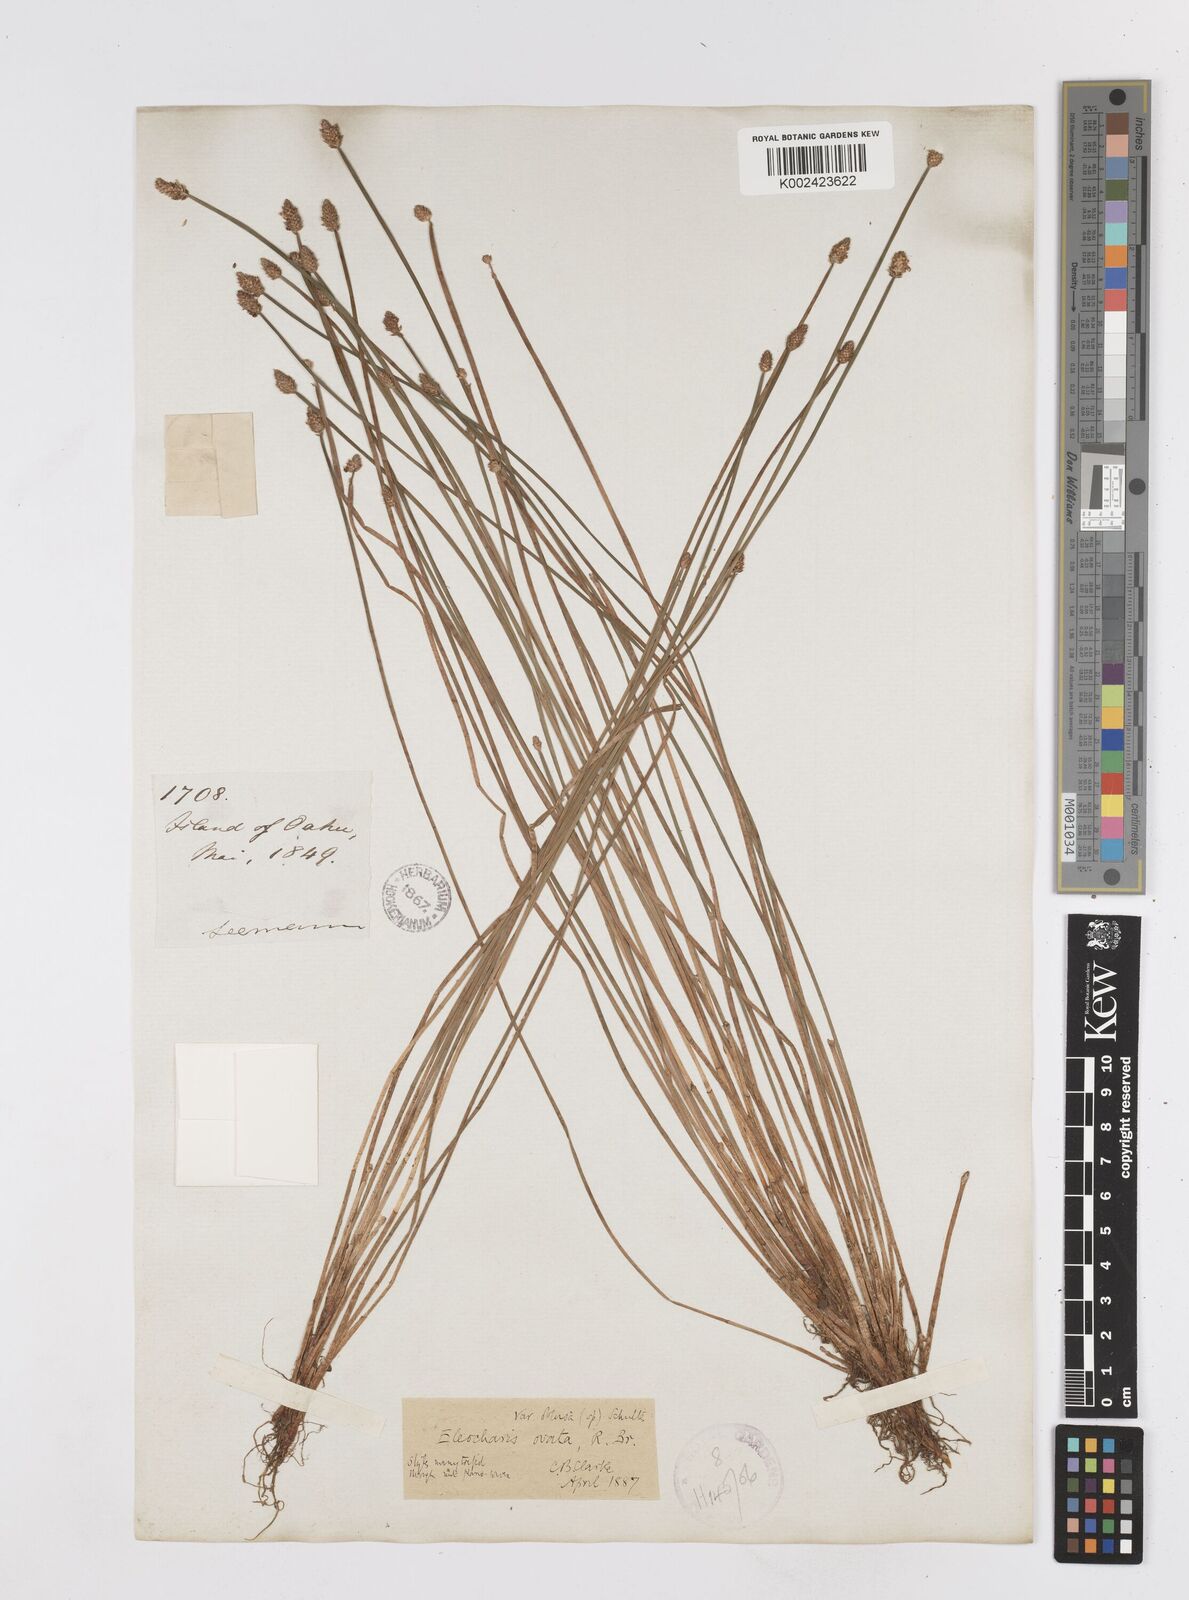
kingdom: Plantae
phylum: Tracheophyta
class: Liliopsida
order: Poales
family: Cyperaceae
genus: Eleocharis
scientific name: Eleocharis obtusa
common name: Blunt spikerush
